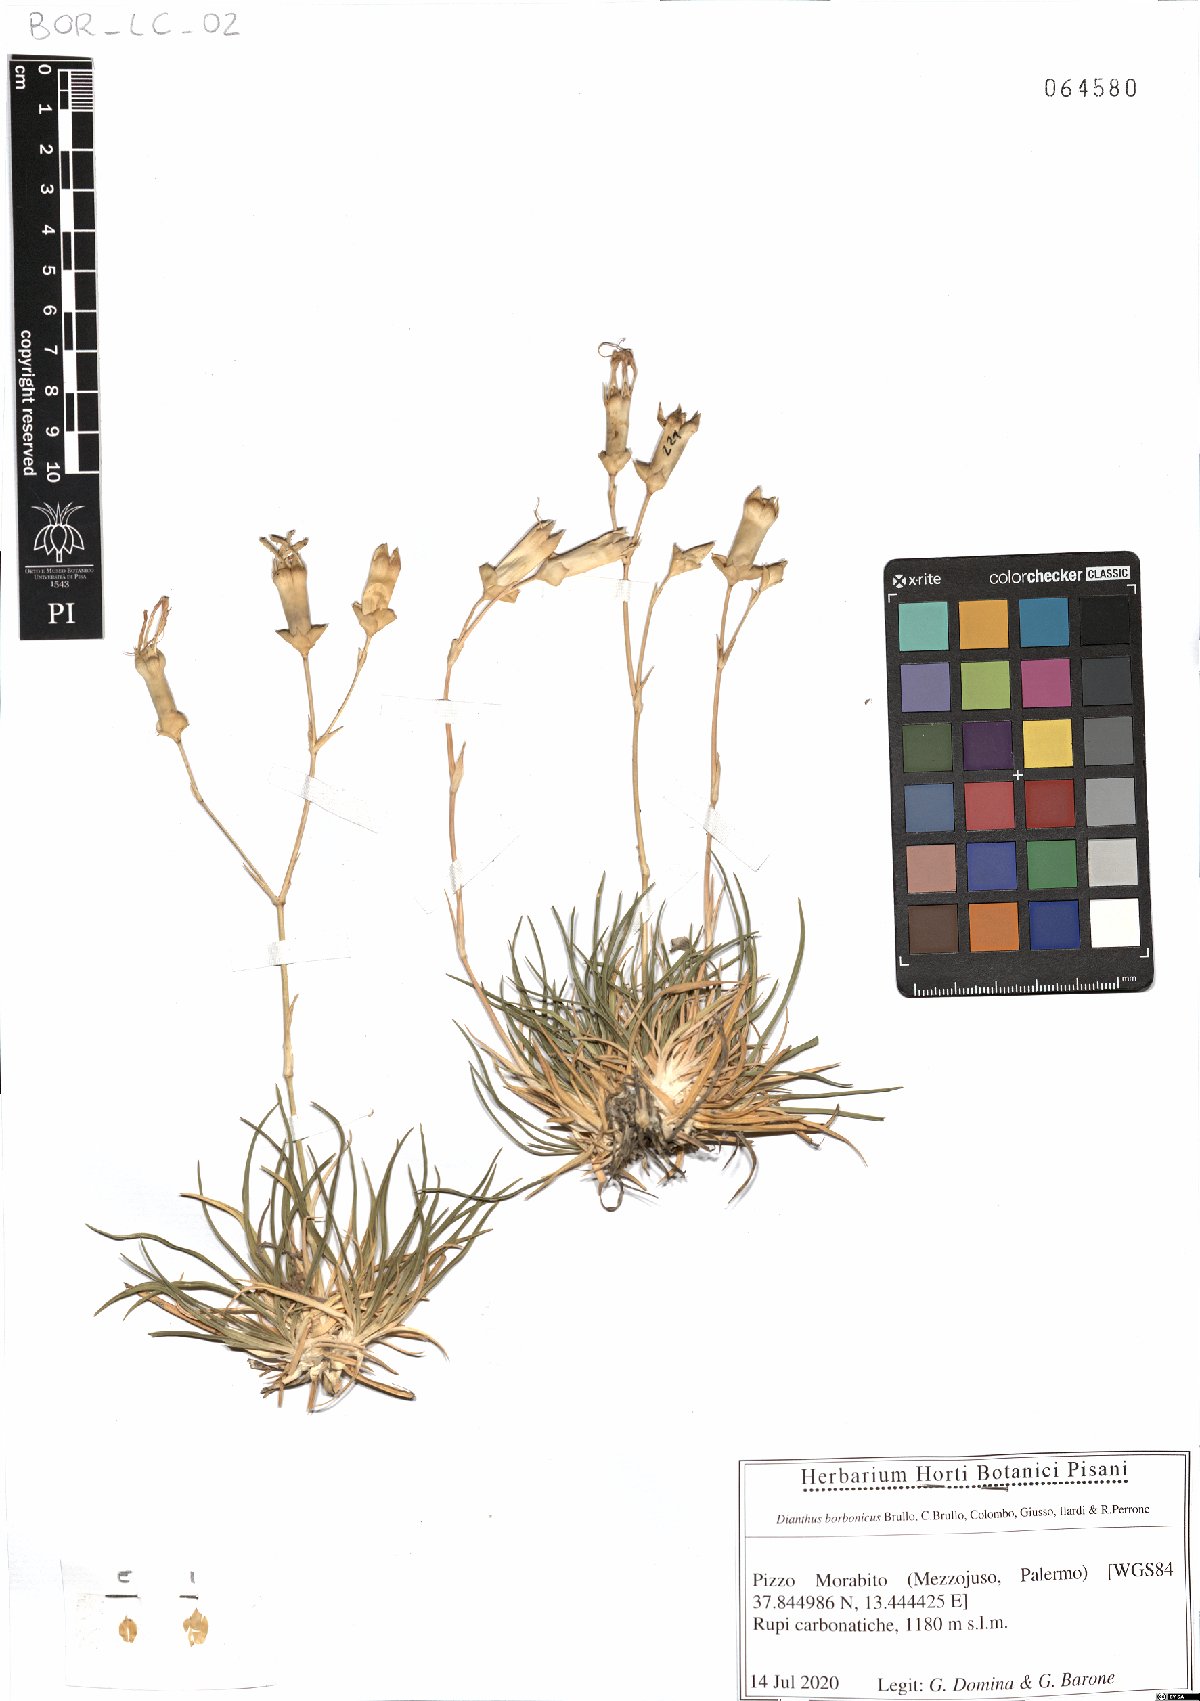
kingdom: Plantae
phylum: Tracheophyta
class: Magnoliopsida
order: Caryophyllales
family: Caryophyllaceae
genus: Dianthus
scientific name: Dianthus borbonicus
